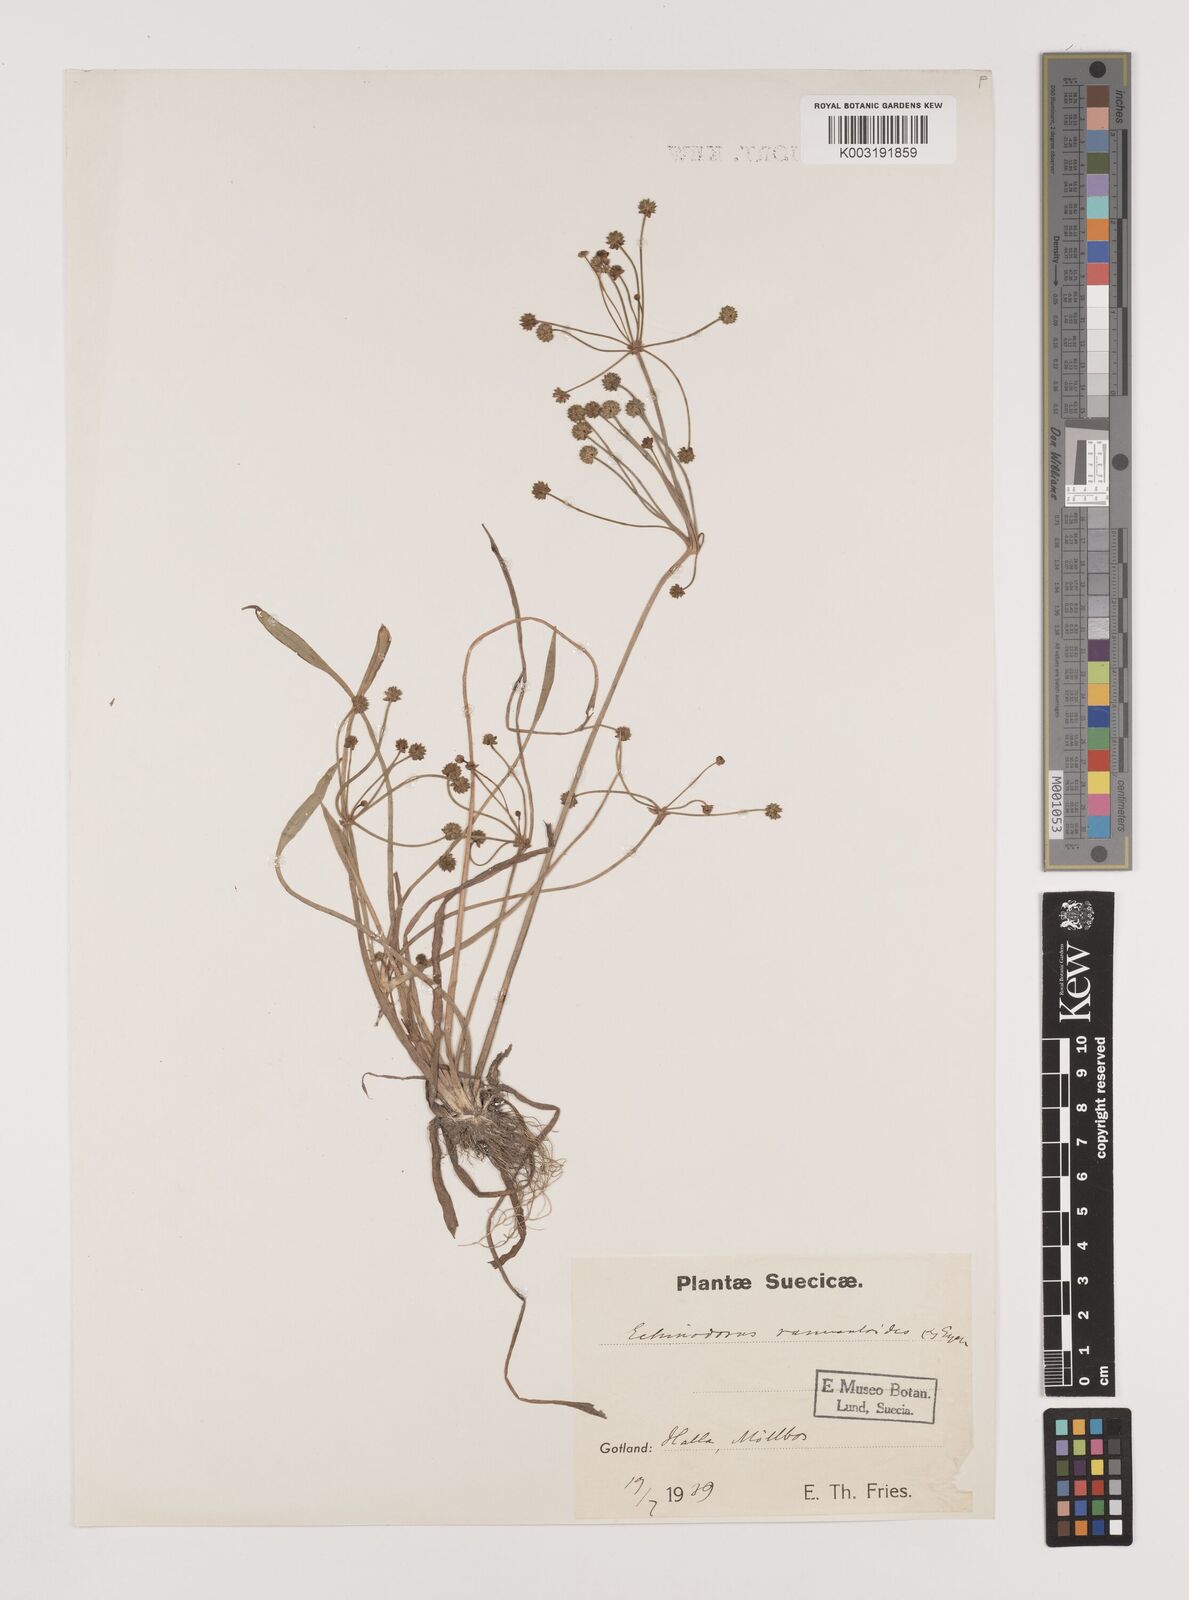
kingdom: Plantae
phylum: Tracheophyta
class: Liliopsida
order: Alismatales
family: Alismataceae
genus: Baldellia
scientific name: Baldellia ranunculoides
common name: Lesser water-plantain
